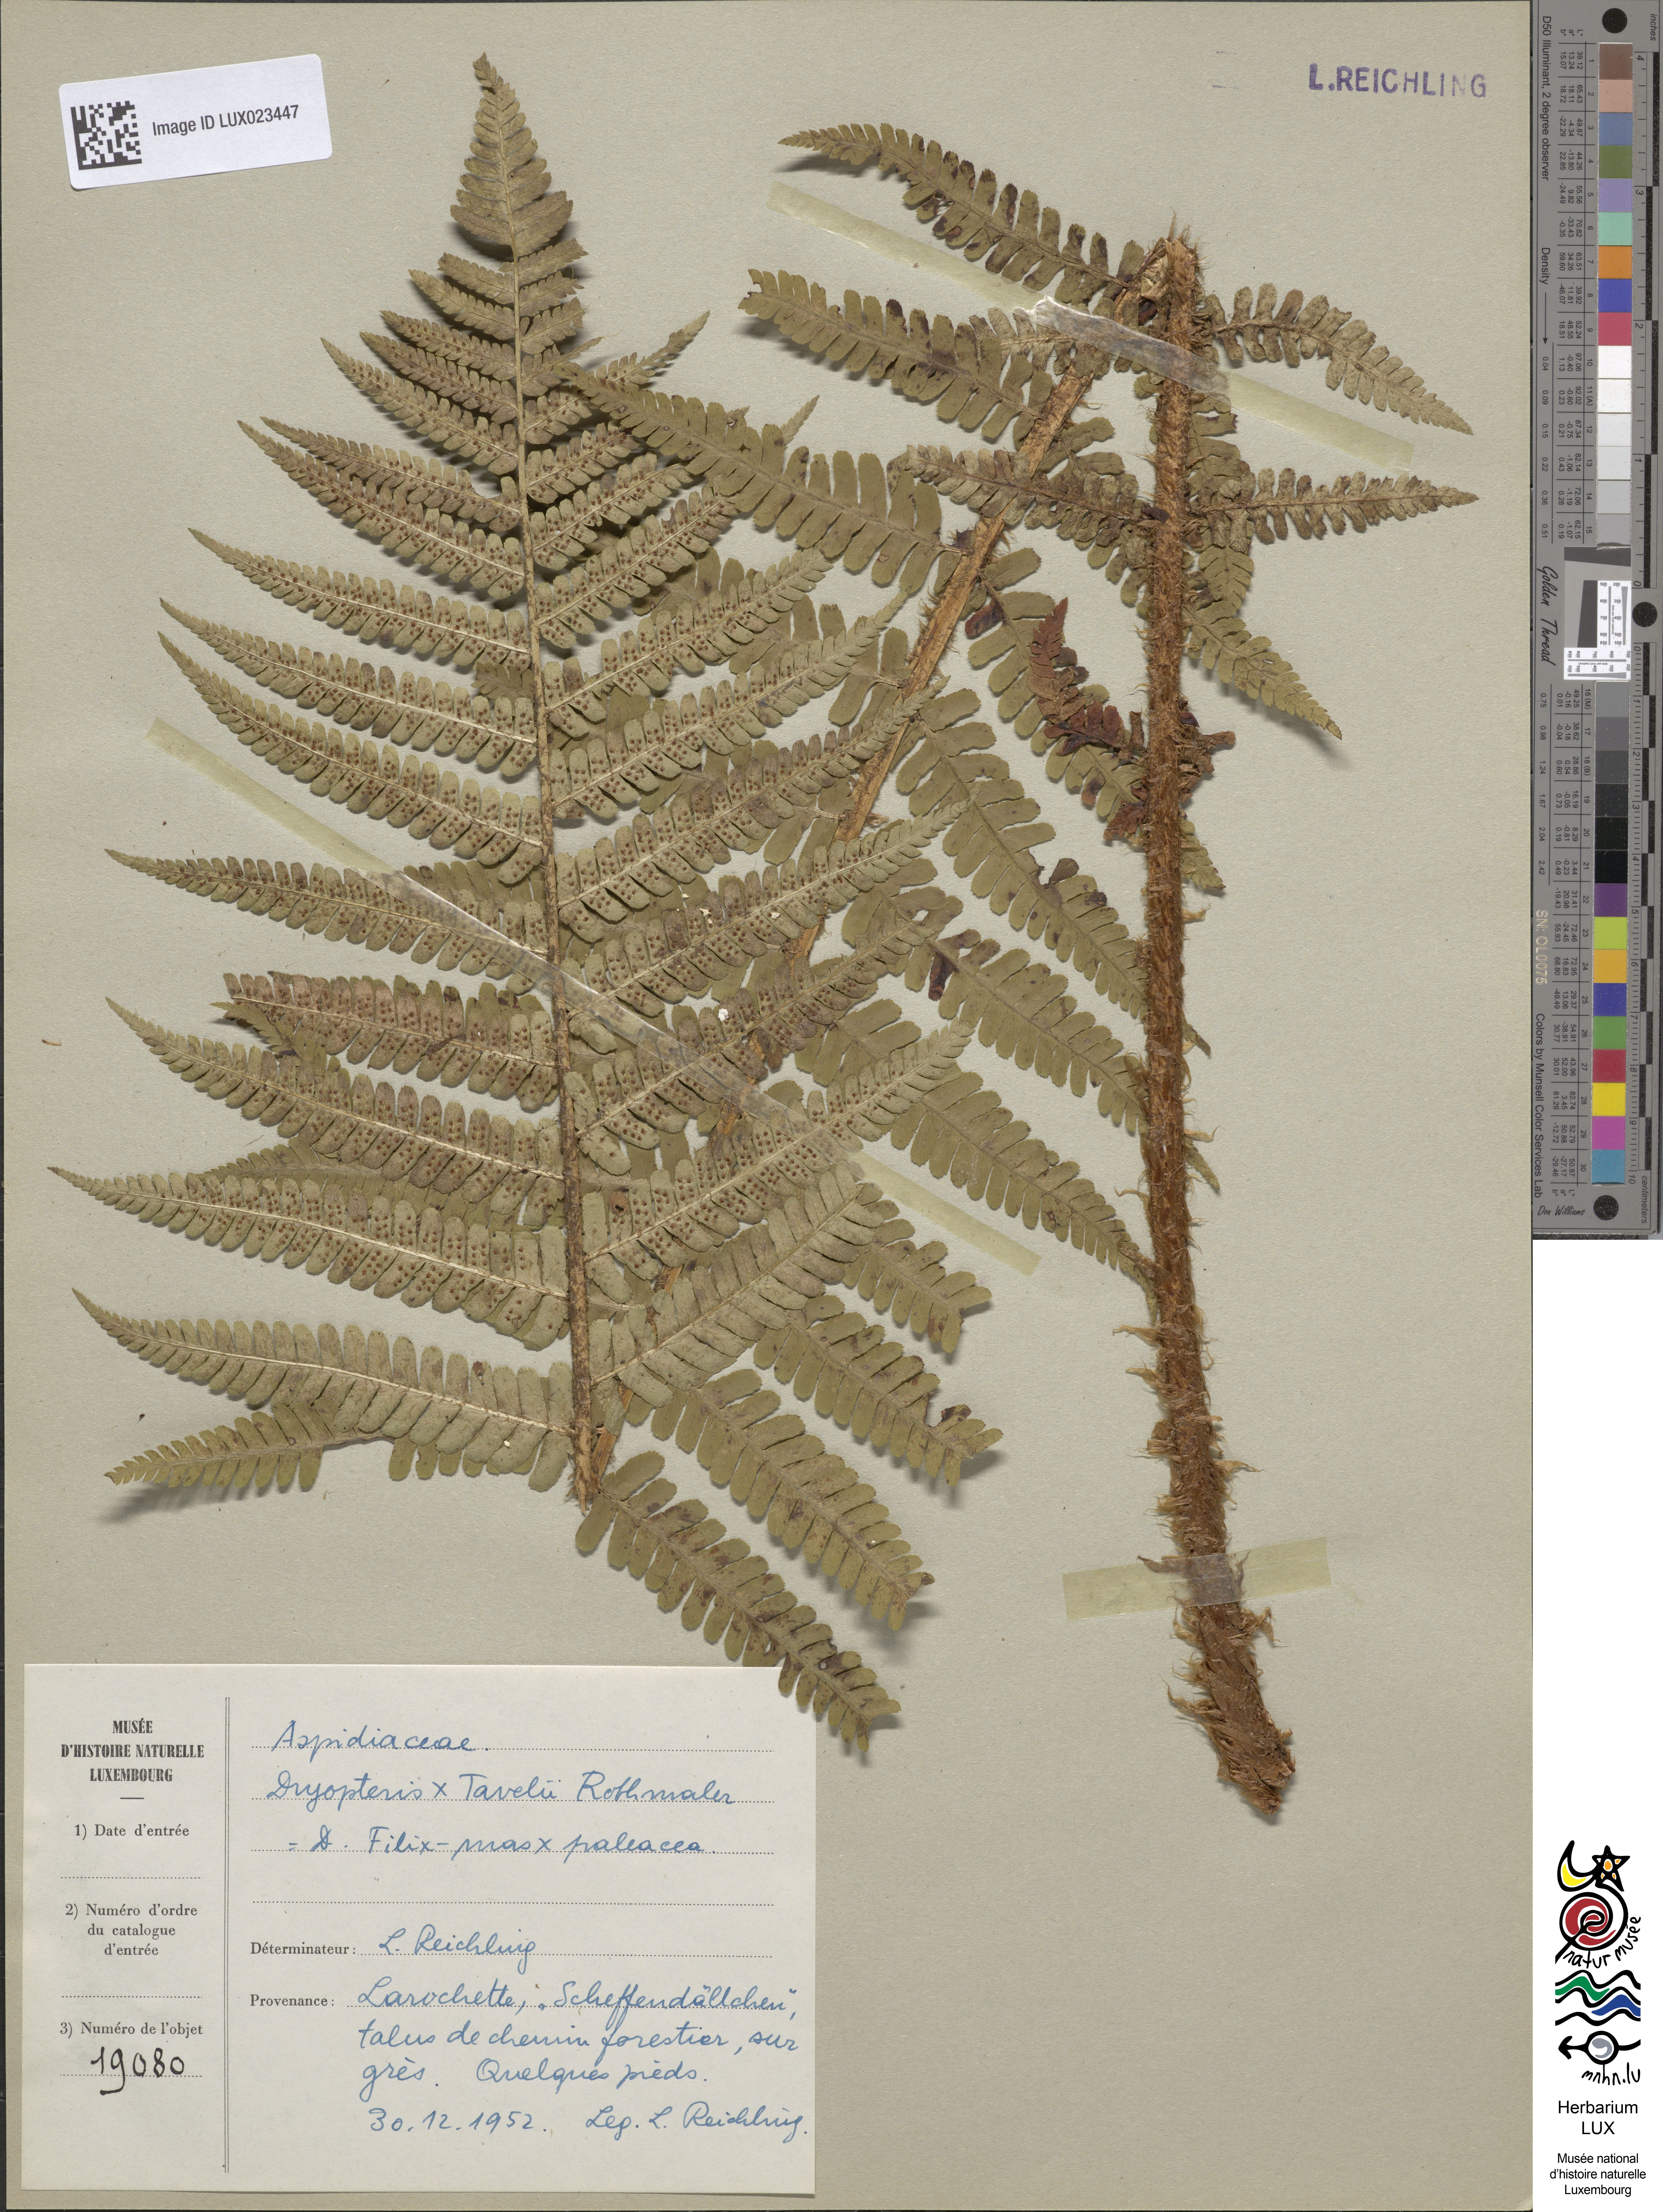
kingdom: Plantae
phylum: Tracheophyta
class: Polypodiopsida
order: Polypodiales
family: Dryopteridaceae
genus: Dryopteris
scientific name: Dryopteris borreri
